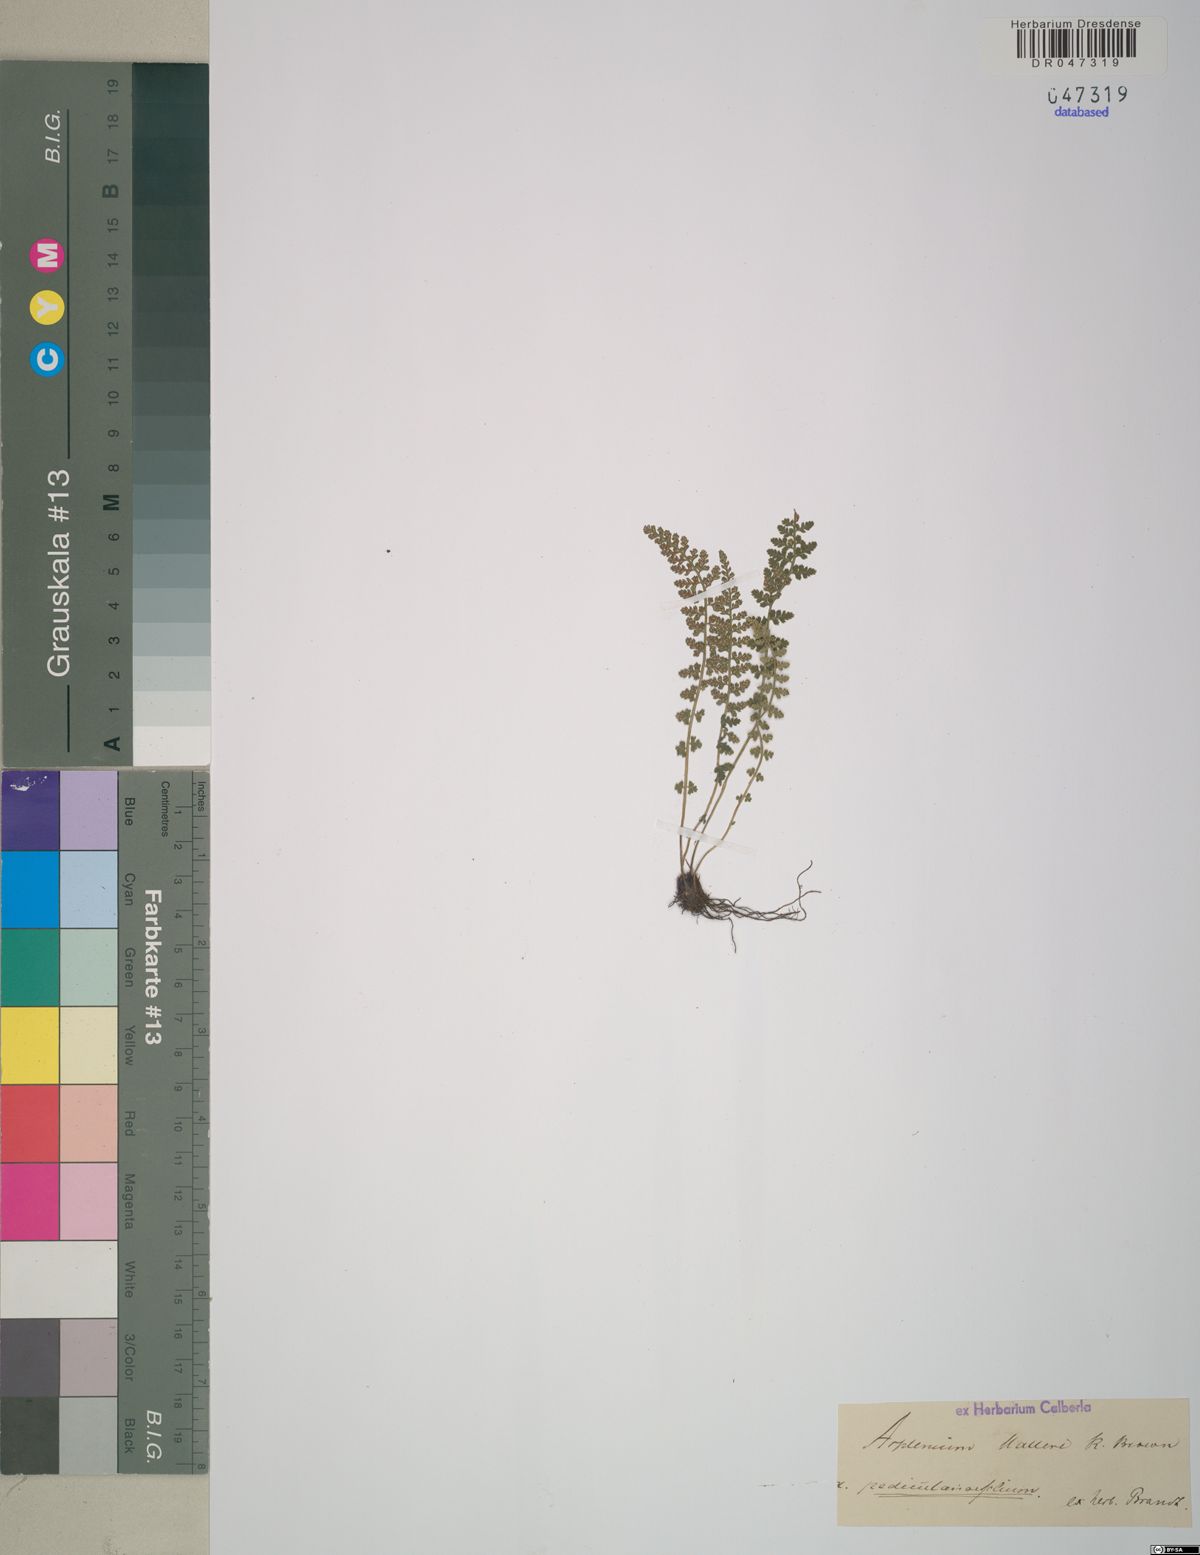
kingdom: Plantae
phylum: Tracheophyta
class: Polypodiopsida
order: Polypodiales
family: Aspleniaceae
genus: Asplenium
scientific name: Asplenium fontanum
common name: Fountain spleenwort
